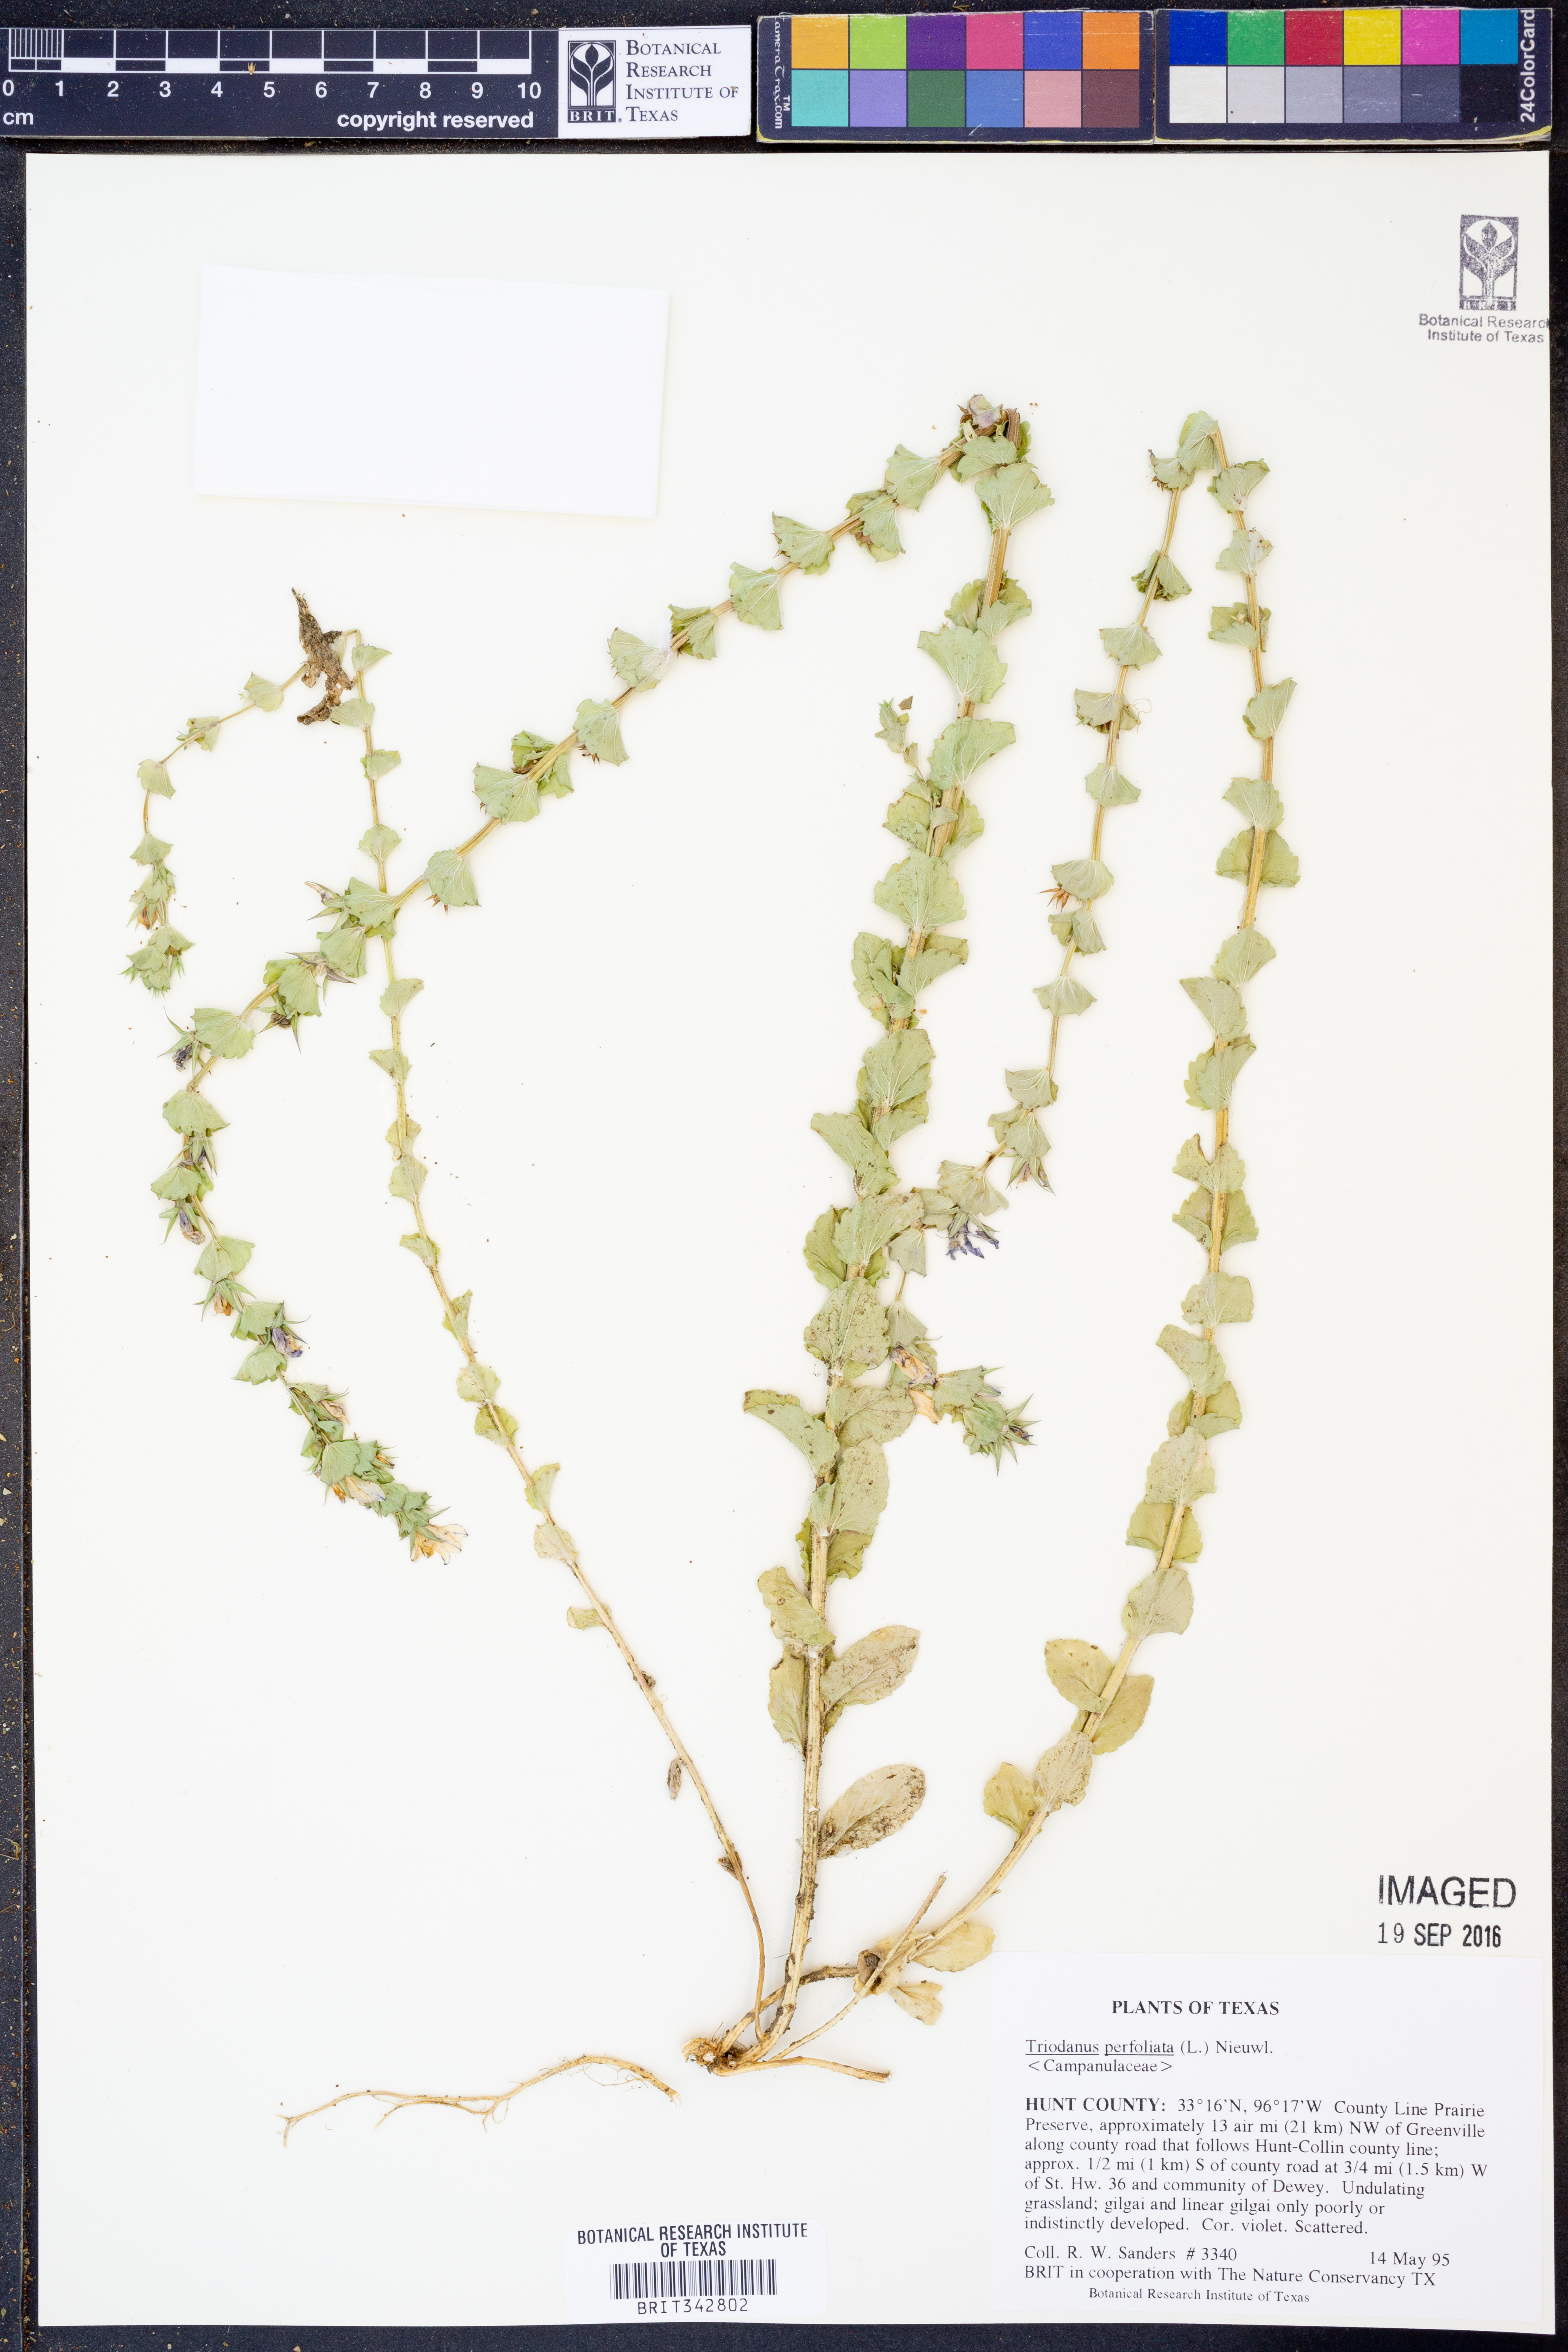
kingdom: Plantae
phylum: Tracheophyta
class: Magnoliopsida
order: Asterales
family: Campanulaceae
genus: Triodanis
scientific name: Triodanis perfoliata
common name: Clasping venus' looking-glass
